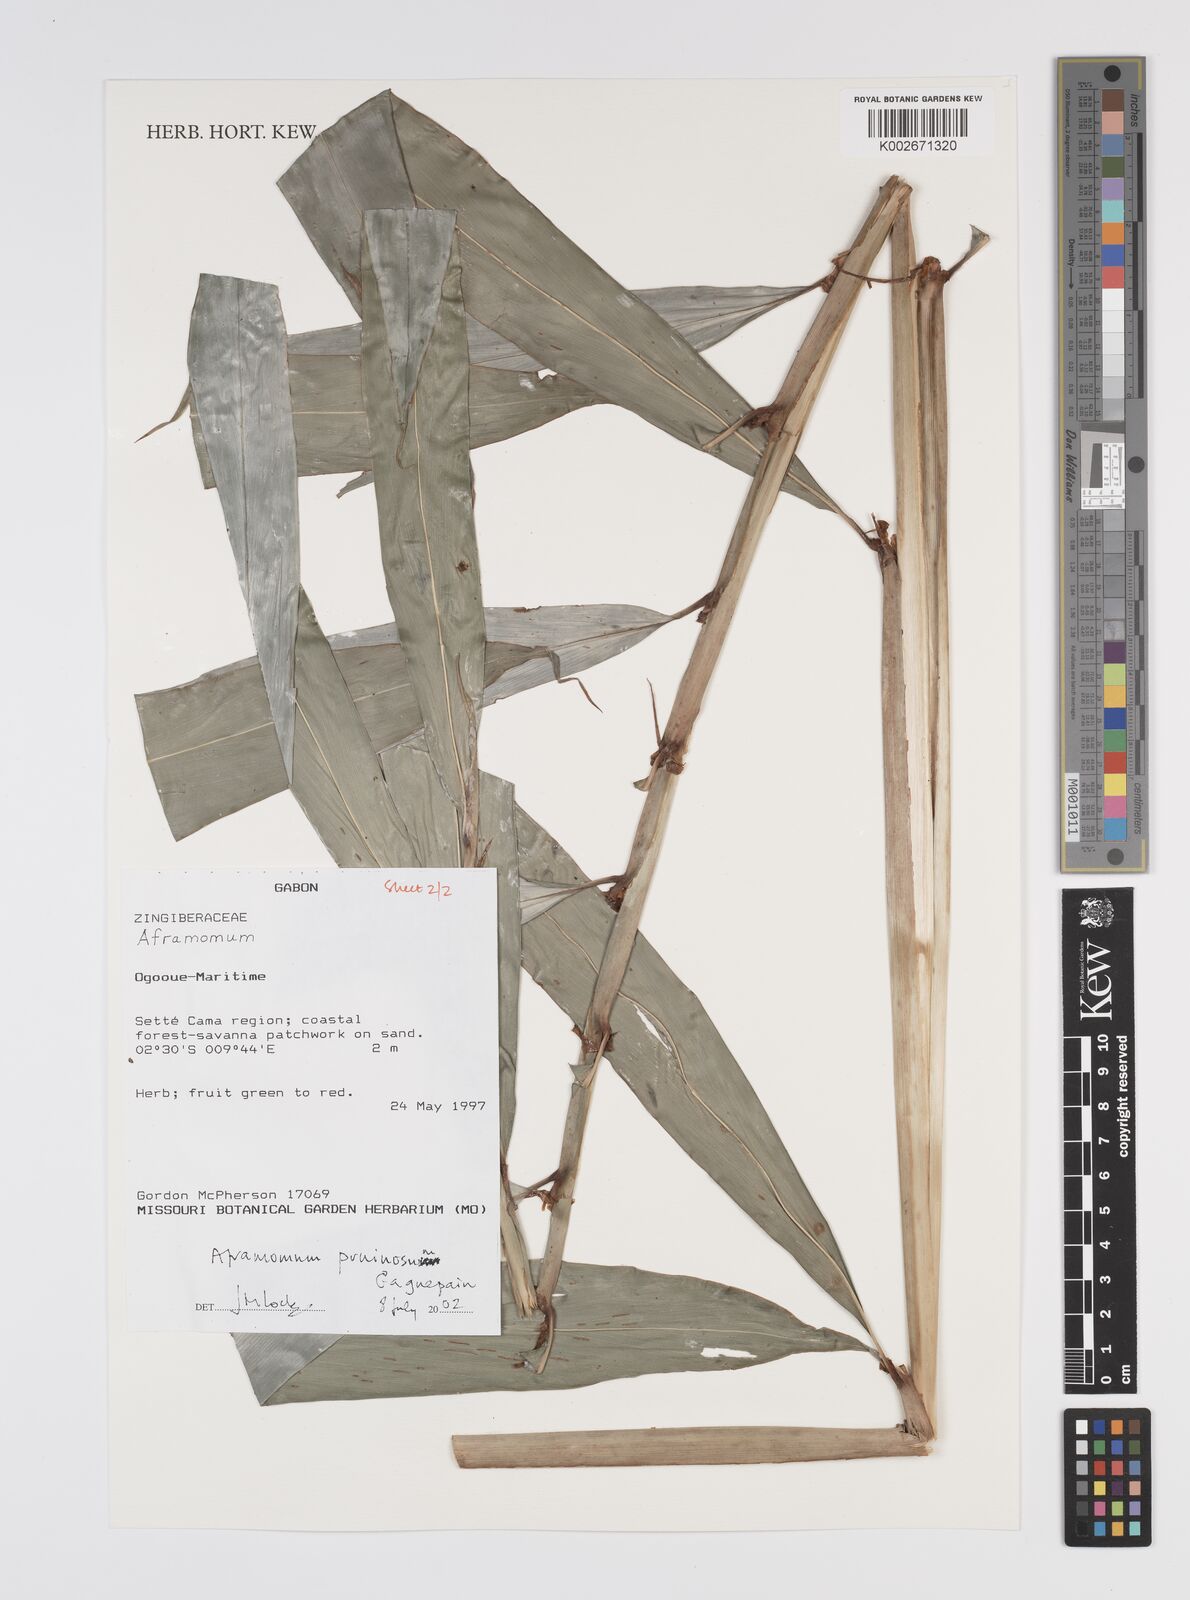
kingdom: Plantae
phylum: Tracheophyta
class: Liliopsida
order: Zingiberales
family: Zingiberaceae
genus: Aframomum
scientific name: Aframomum letestuanum
